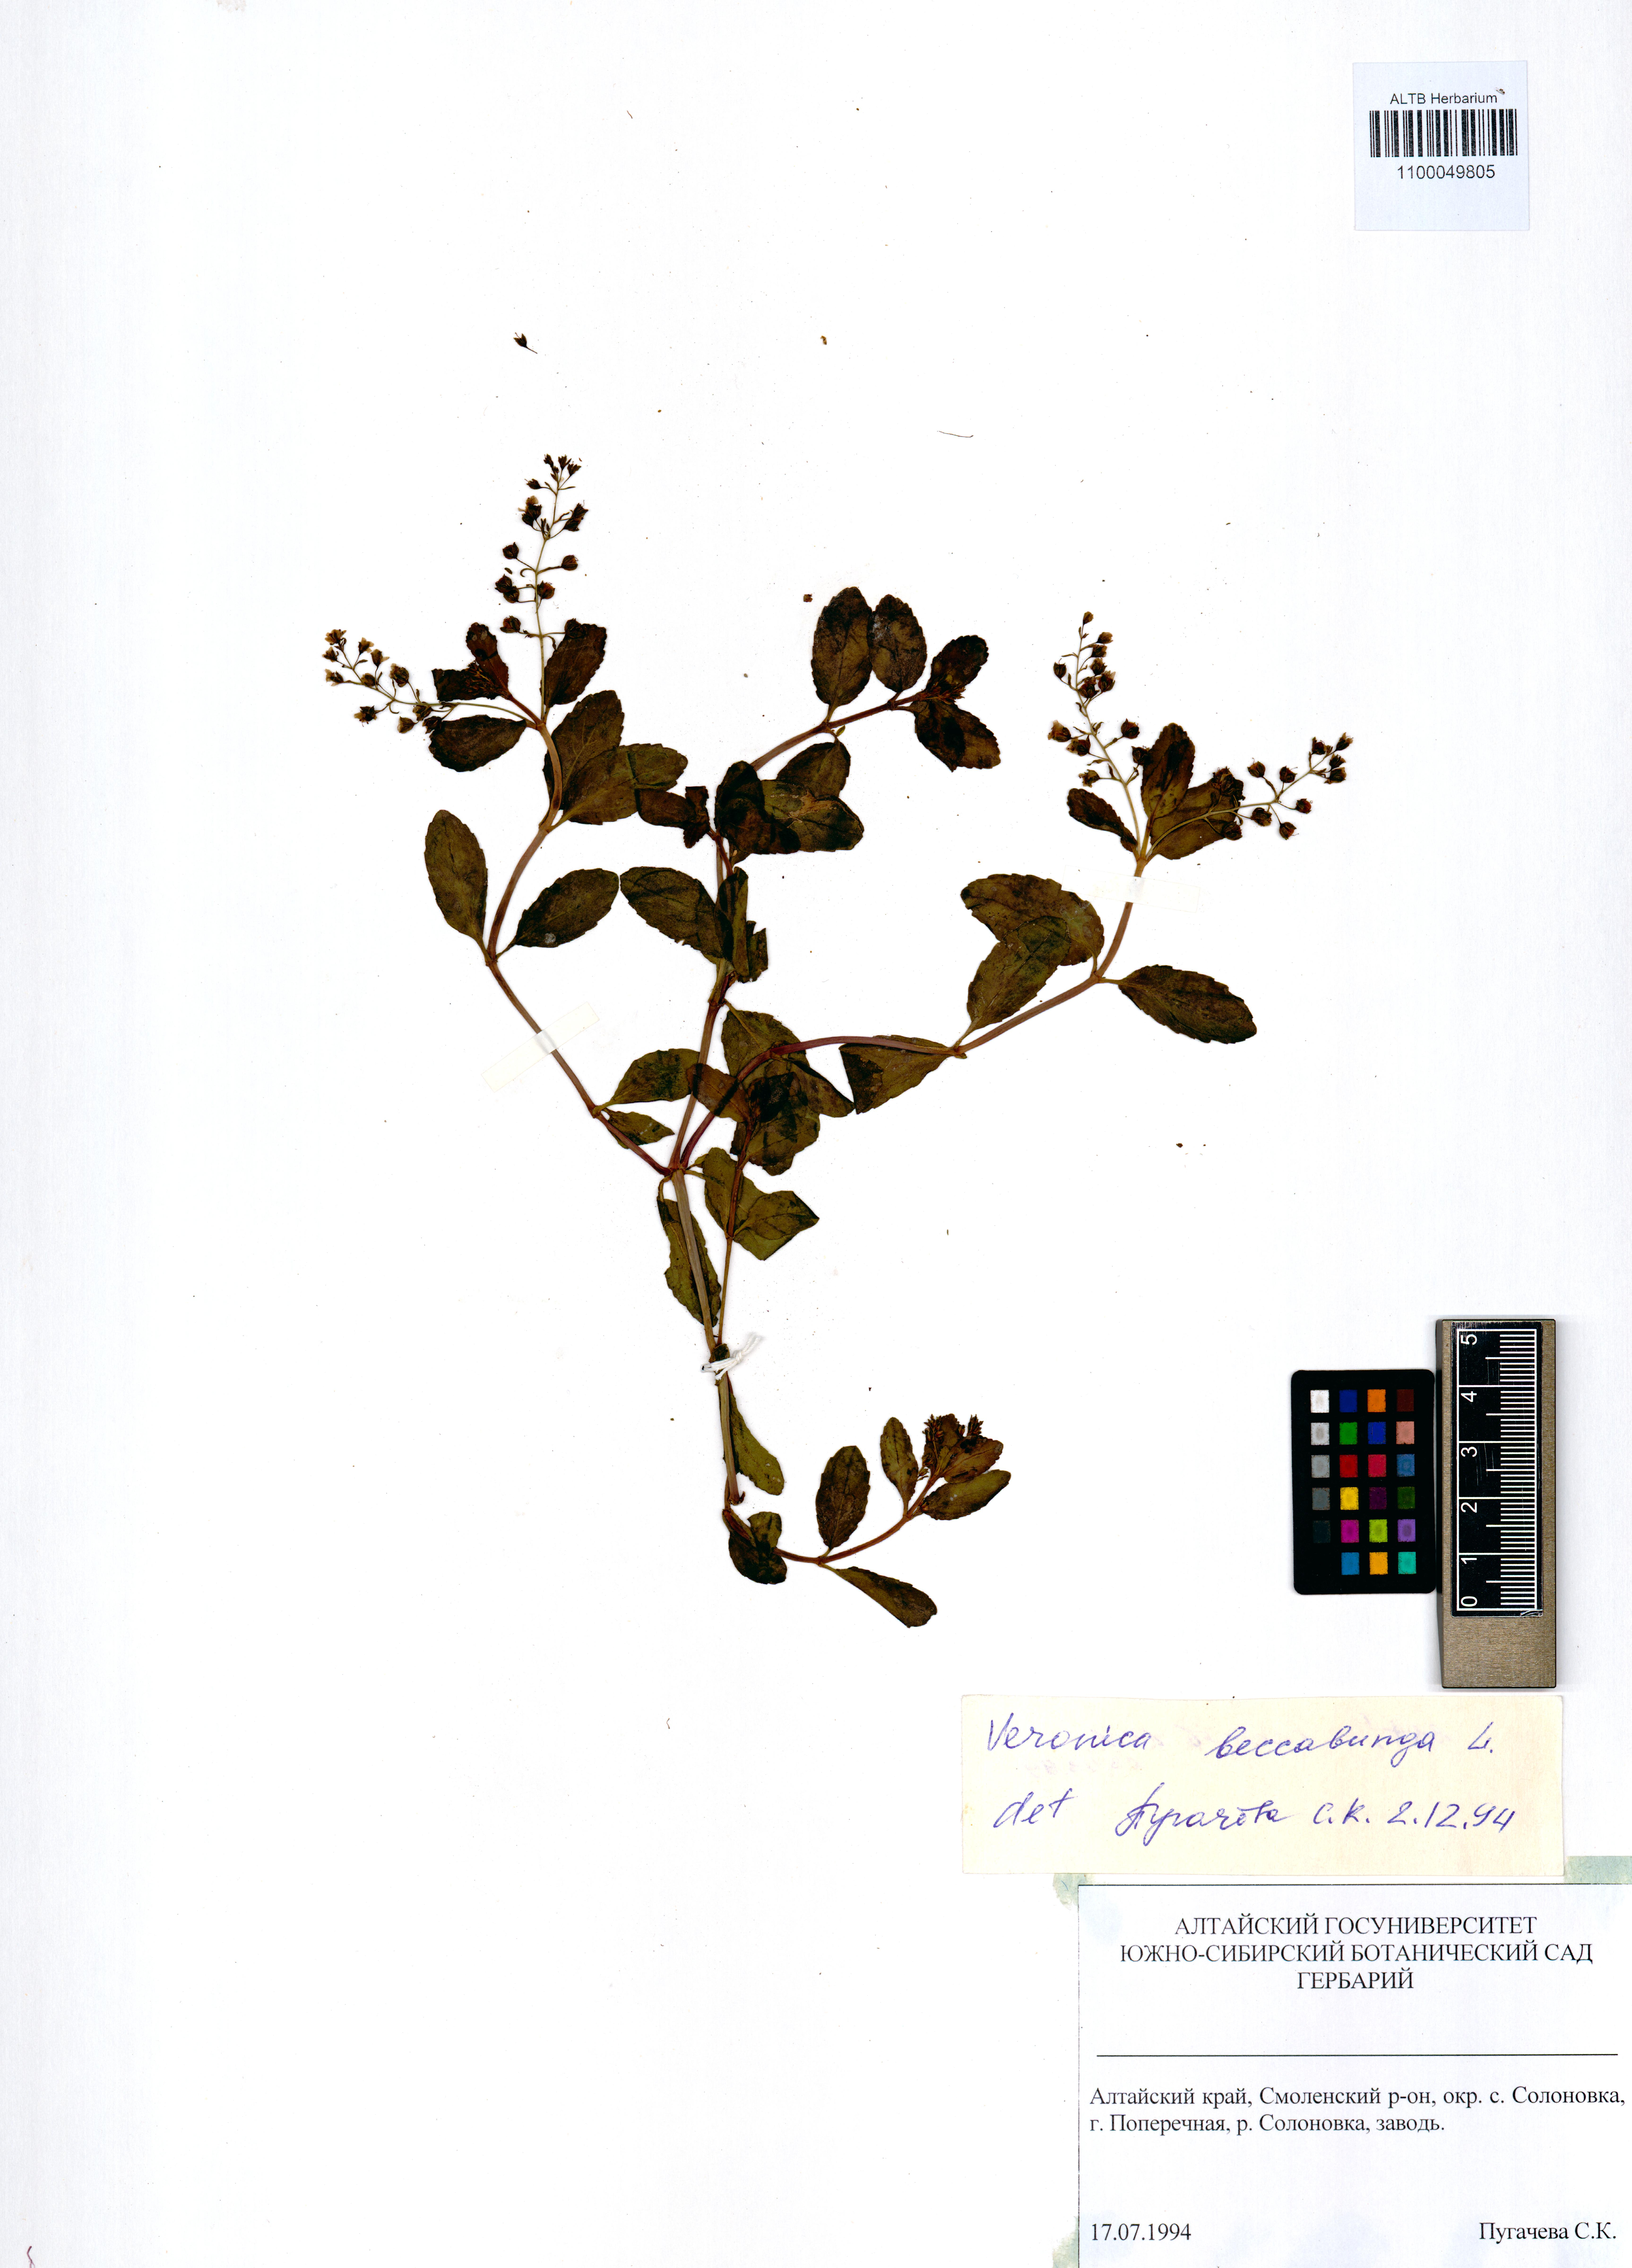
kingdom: Plantae
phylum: Tracheophyta
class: Magnoliopsida
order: Lamiales
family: Plantaginaceae
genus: Veronica
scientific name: Veronica beccabunga
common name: Brooklime
